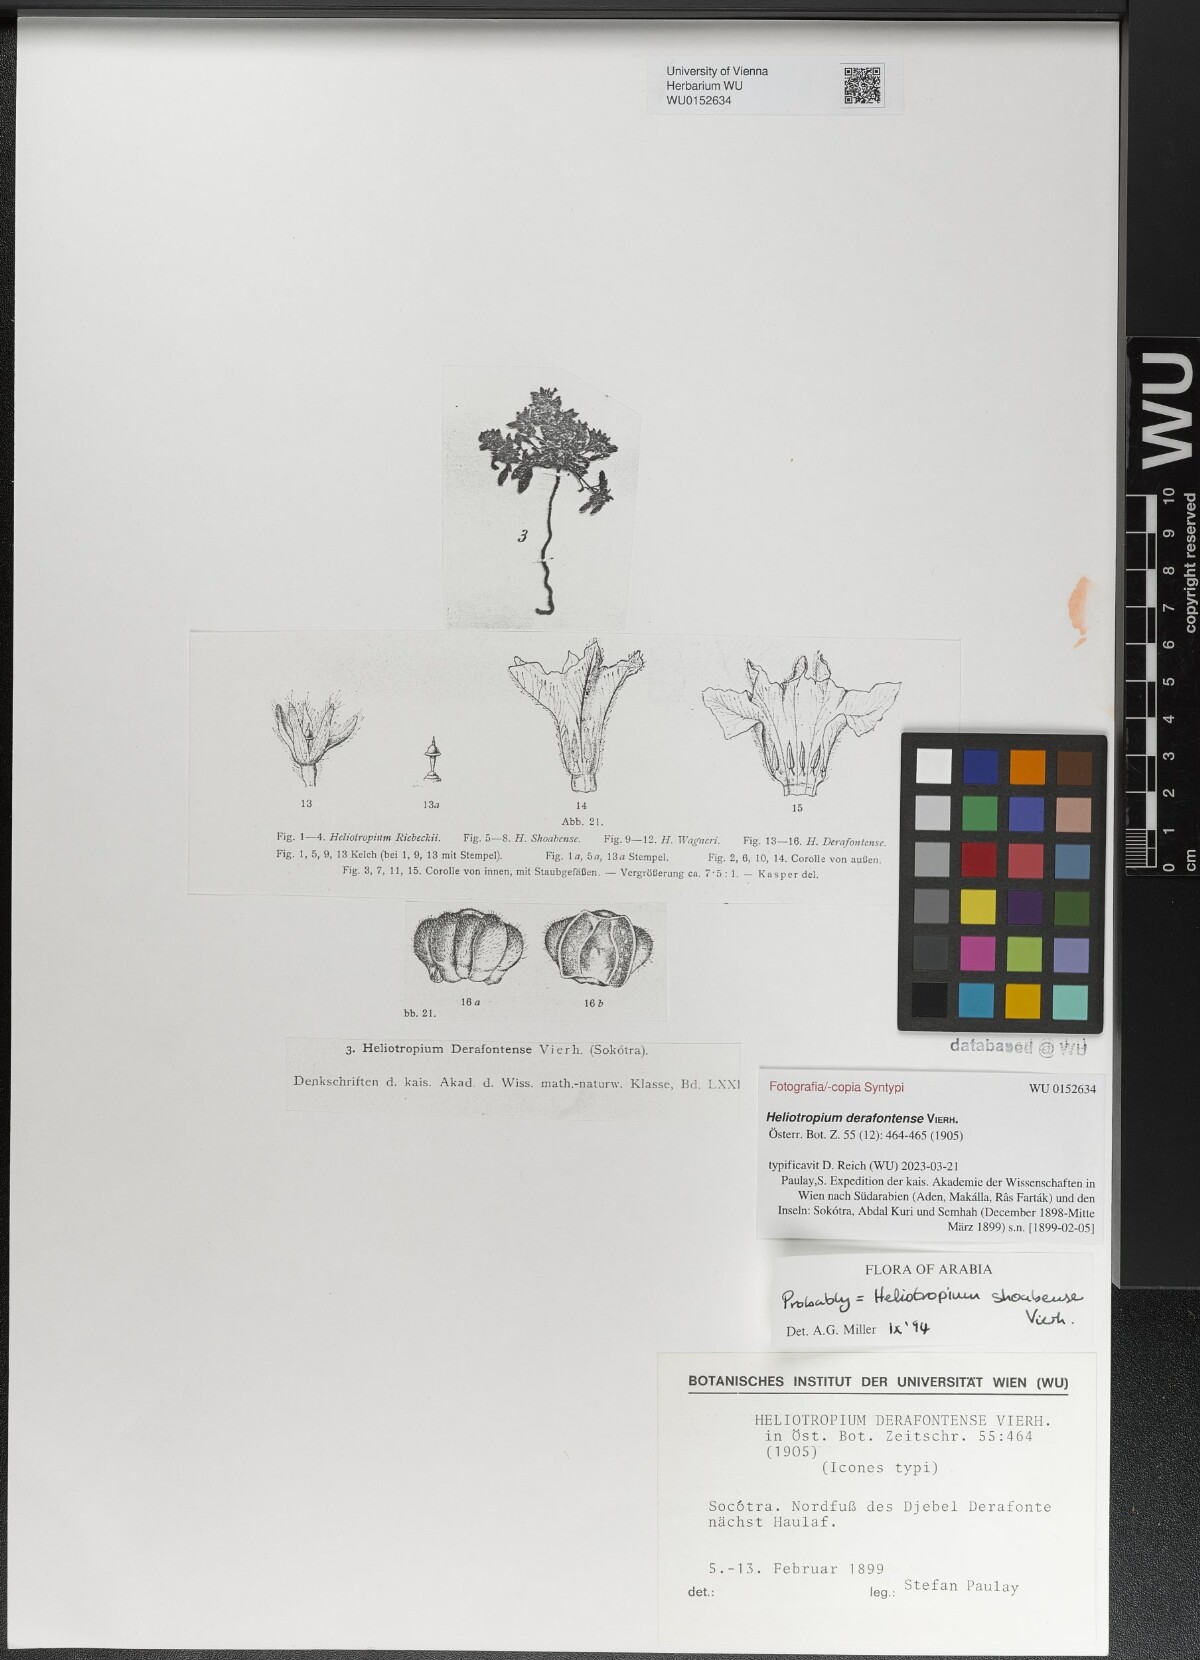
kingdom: Plantae
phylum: Tracheophyta
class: Magnoliopsida
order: Boraginales
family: Heliotropiaceae
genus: Heliotropium
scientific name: Heliotropium derafontense
